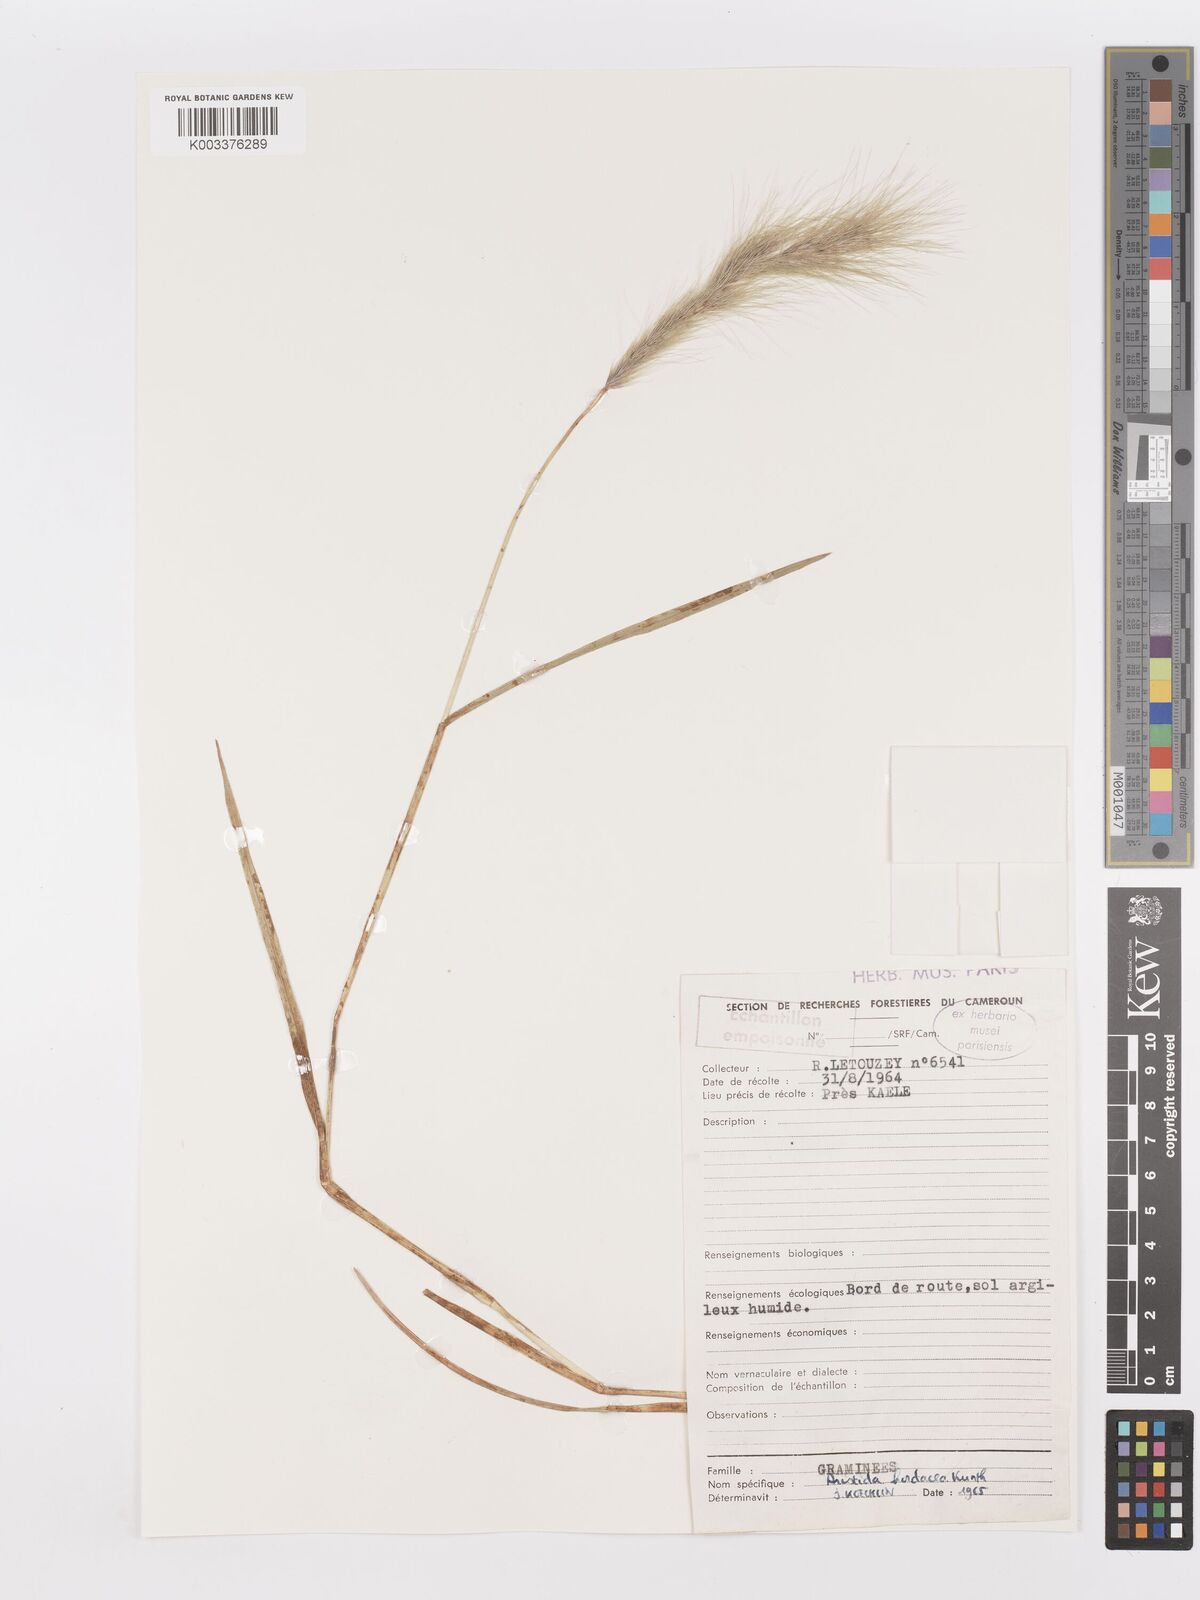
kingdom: Plantae
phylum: Tracheophyta
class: Liliopsida
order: Poales
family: Poaceae
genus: Aristida
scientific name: Aristida hordeacea
